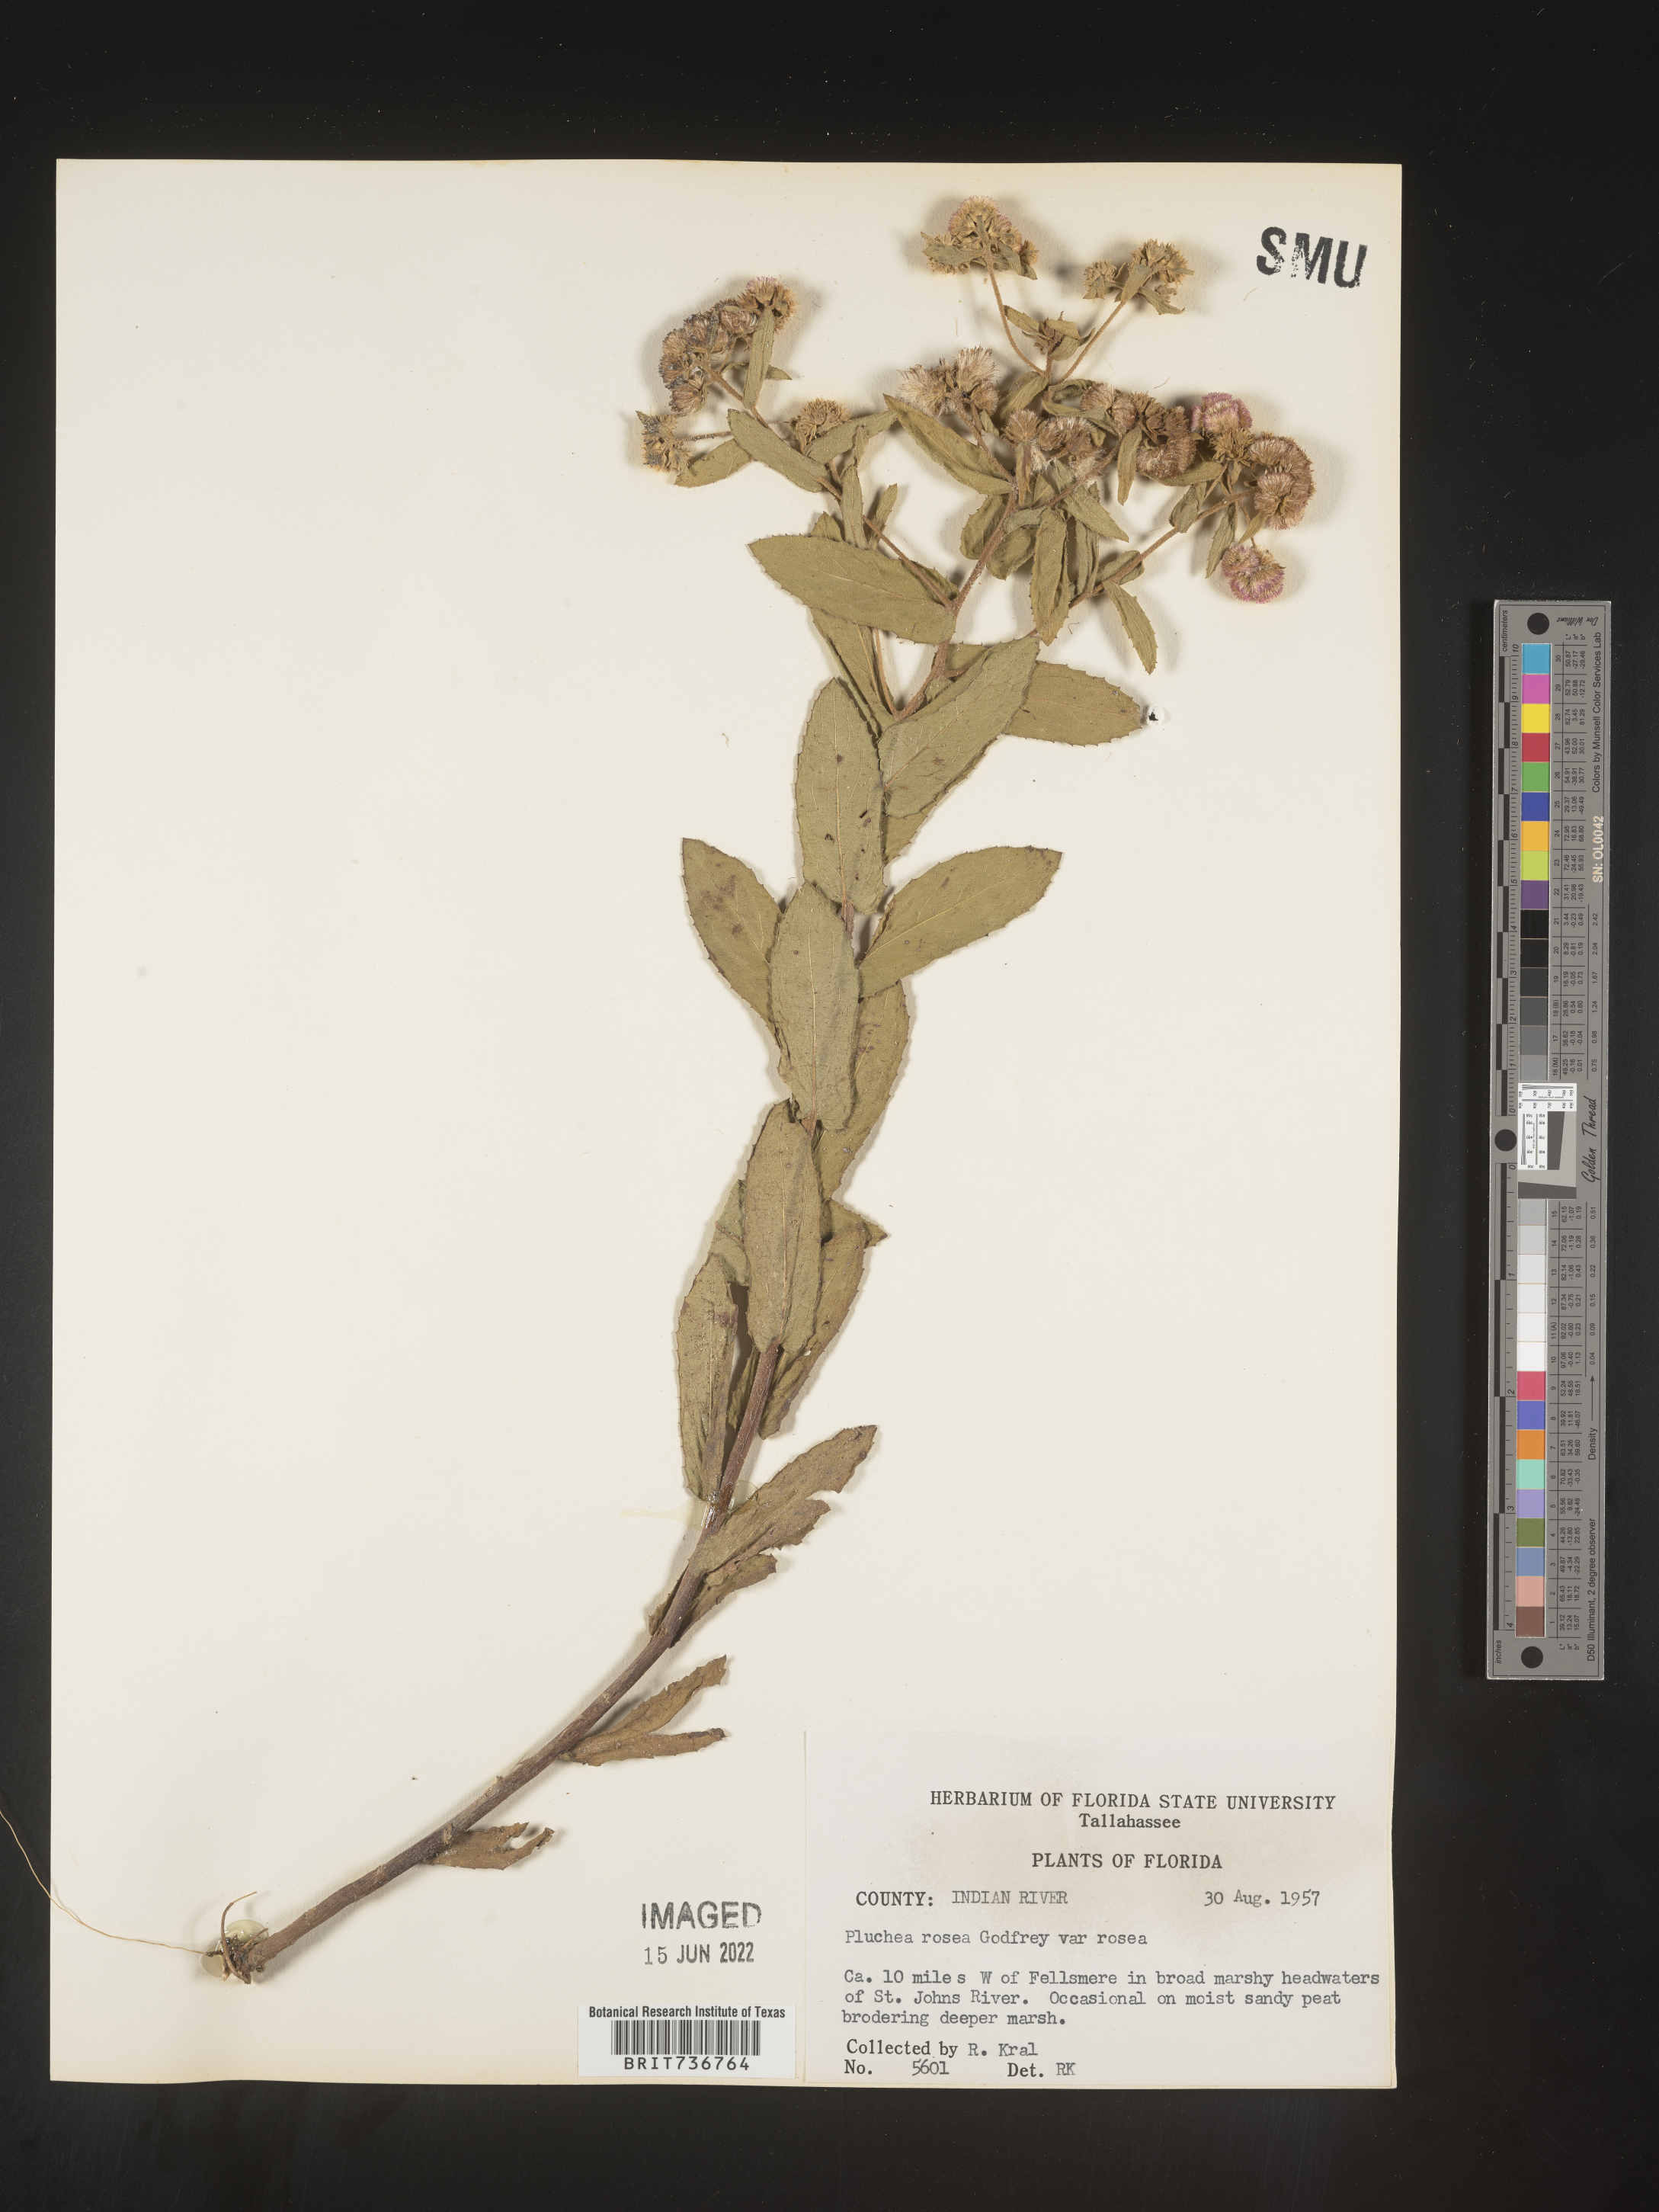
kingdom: Plantae
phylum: Tracheophyta
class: Magnoliopsida
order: Asterales
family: Asteraceae
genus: Pluchea
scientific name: Pluchea baccharis
